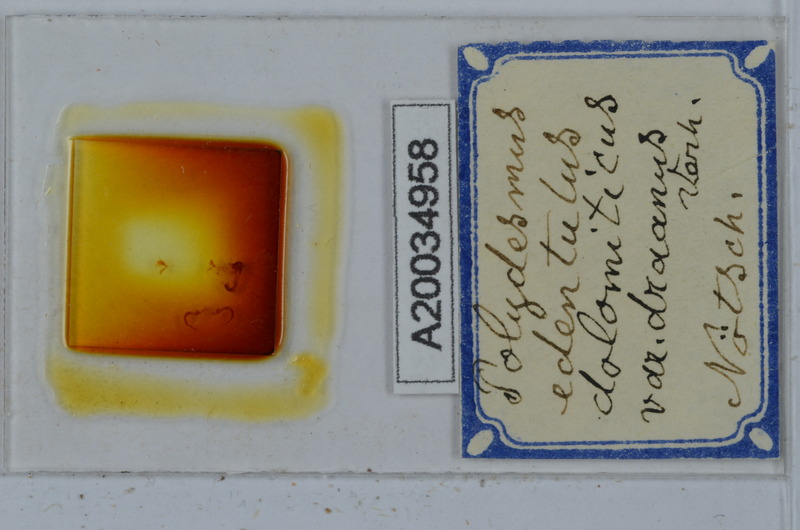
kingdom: Animalia
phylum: Arthropoda
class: Diplopoda
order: Polydesmida
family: Polydesmidae
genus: Polydesmus
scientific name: Polydesmus edentulus
